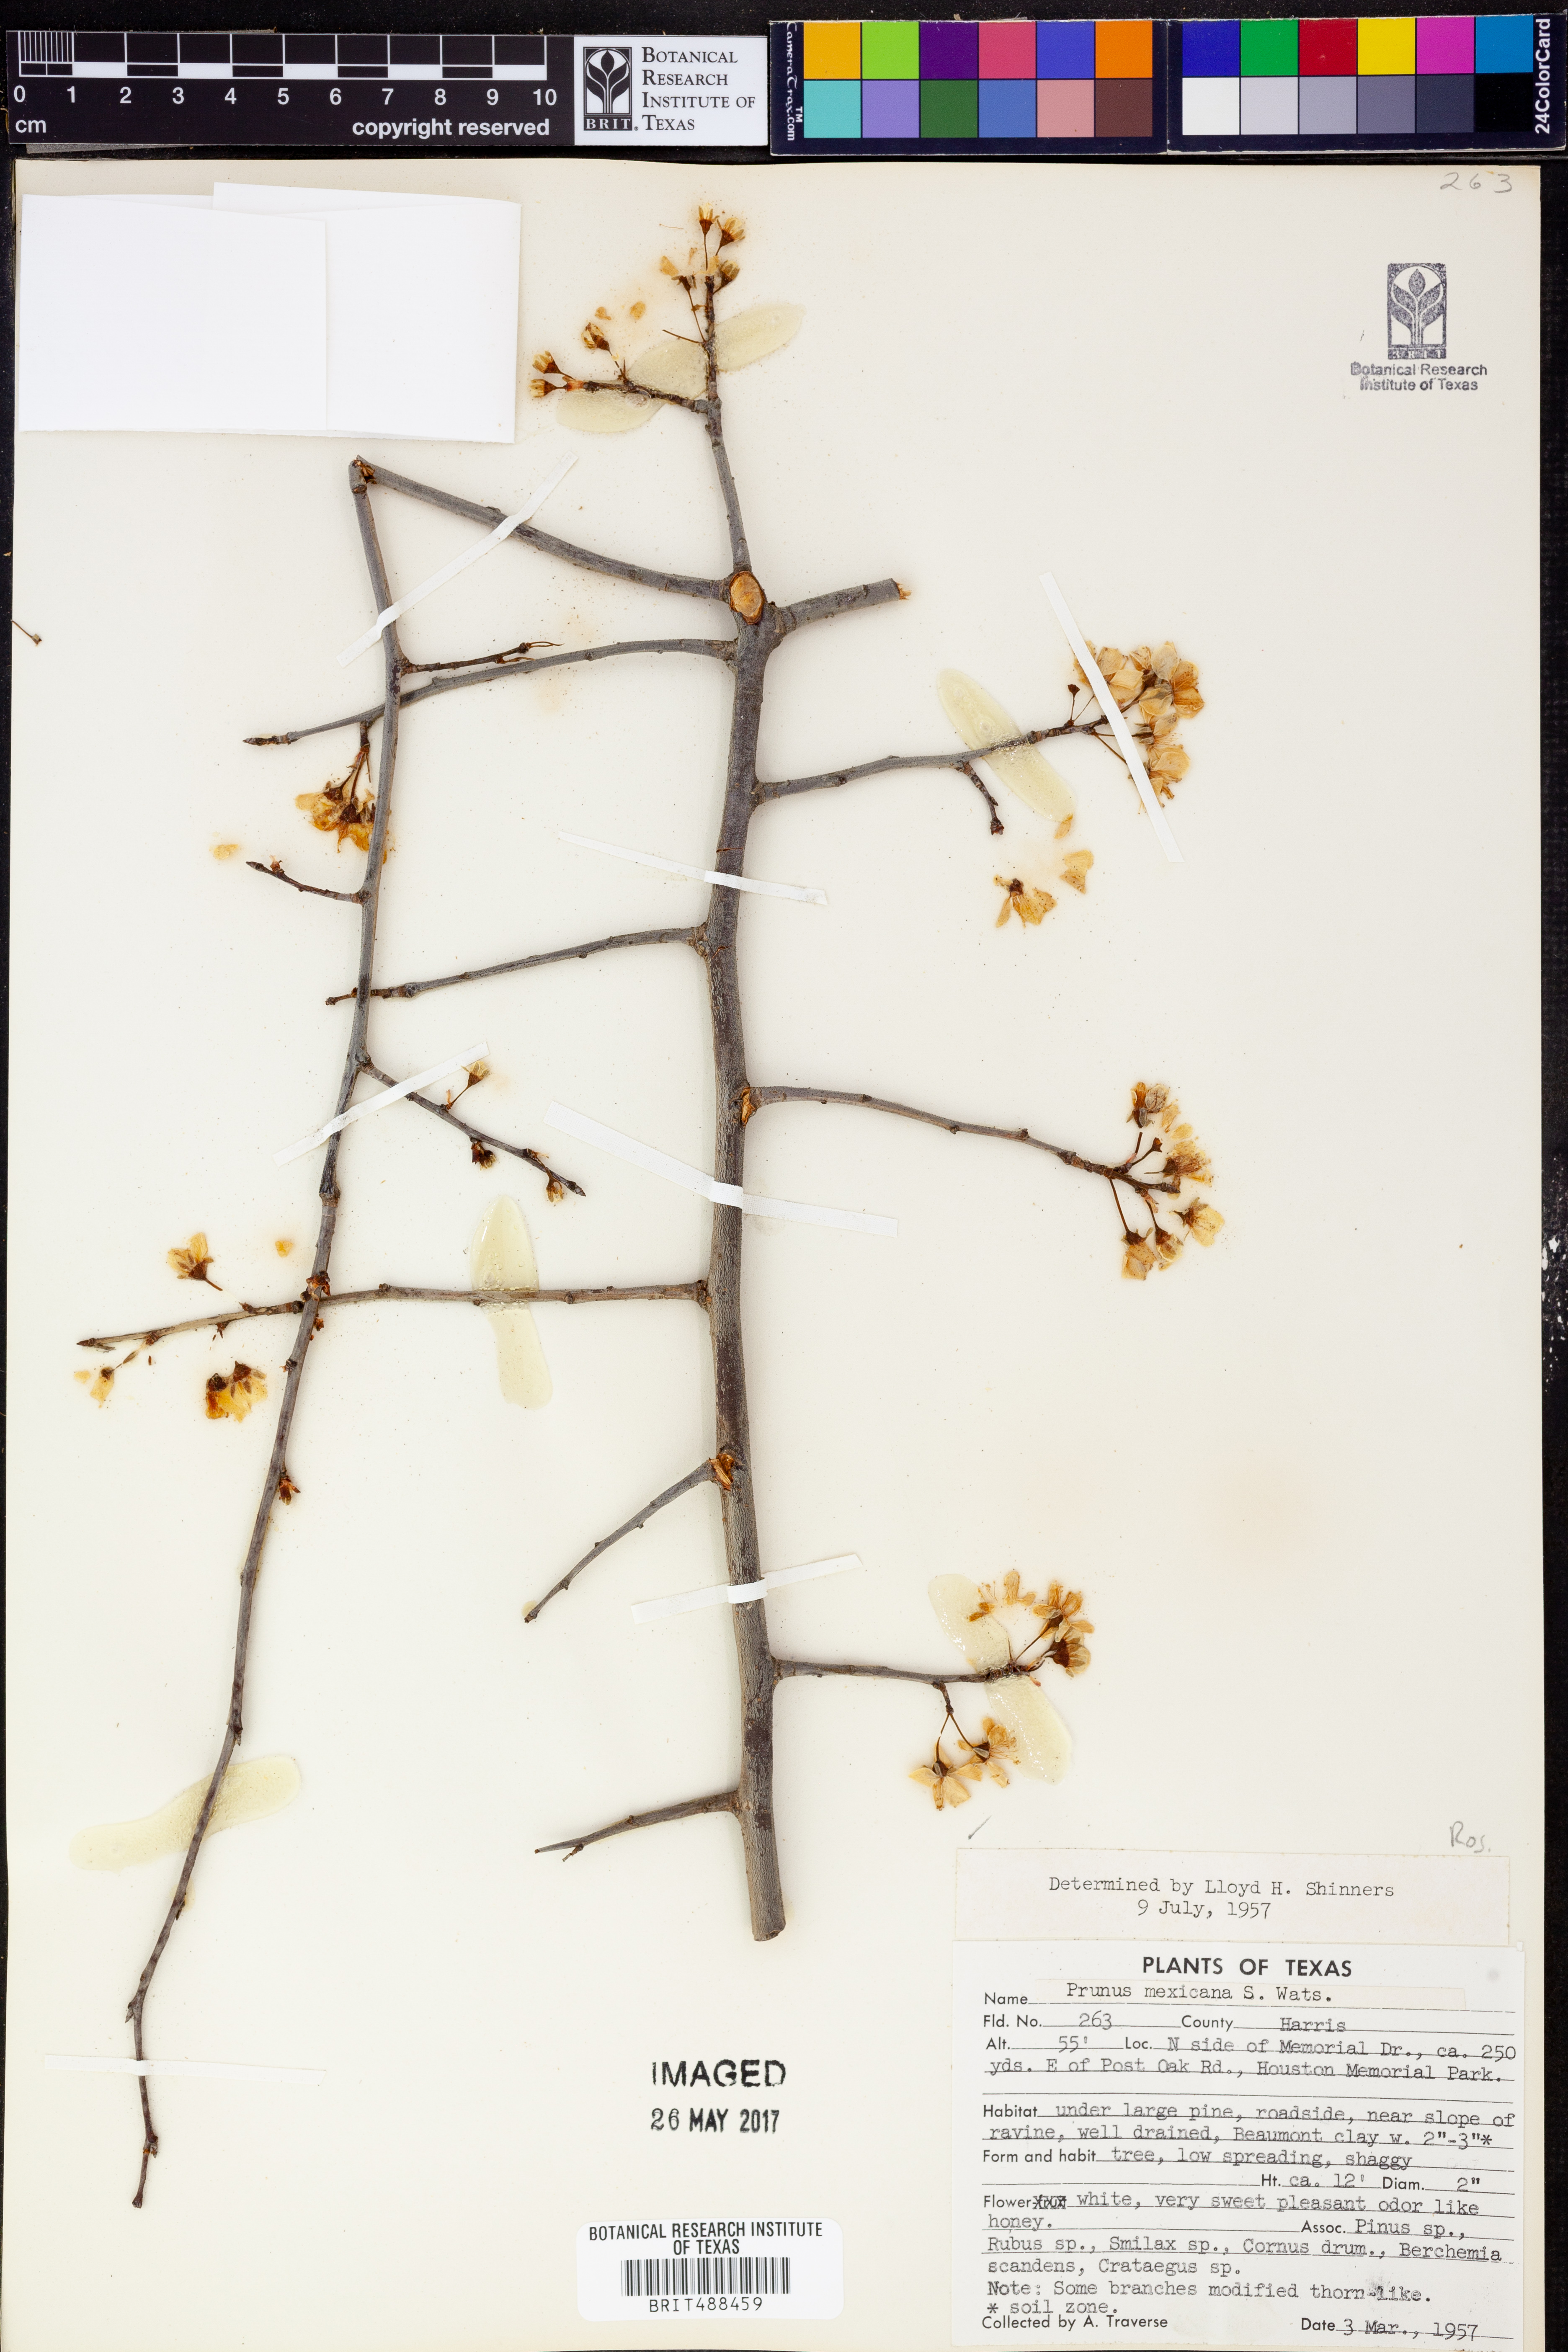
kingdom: Plantae
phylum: Tracheophyta
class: Magnoliopsida
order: Rosales
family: Rosaceae
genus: Prunus
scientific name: Prunus mexicana
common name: Mexican plum
